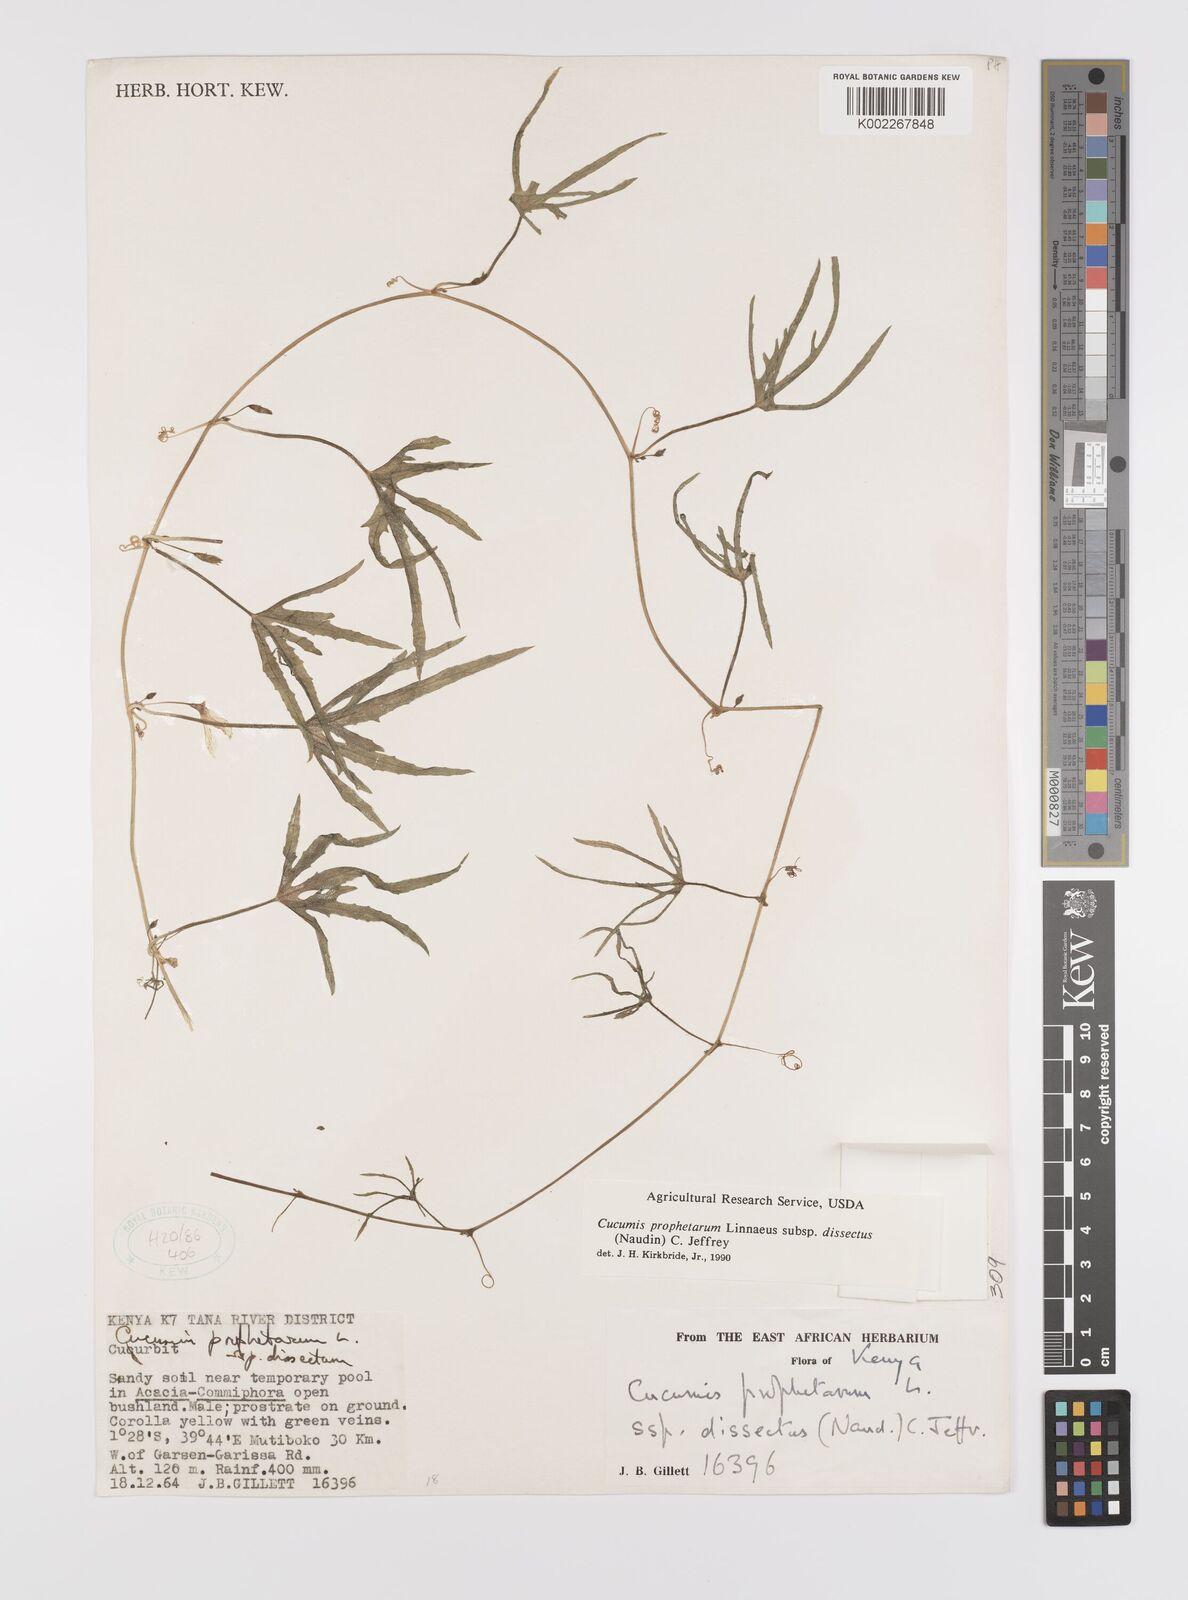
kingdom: Plantae
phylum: Tracheophyta
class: Magnoliopsida
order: Cucurbitales
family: Cucurbitaceae
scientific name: Cucurbitaceae
